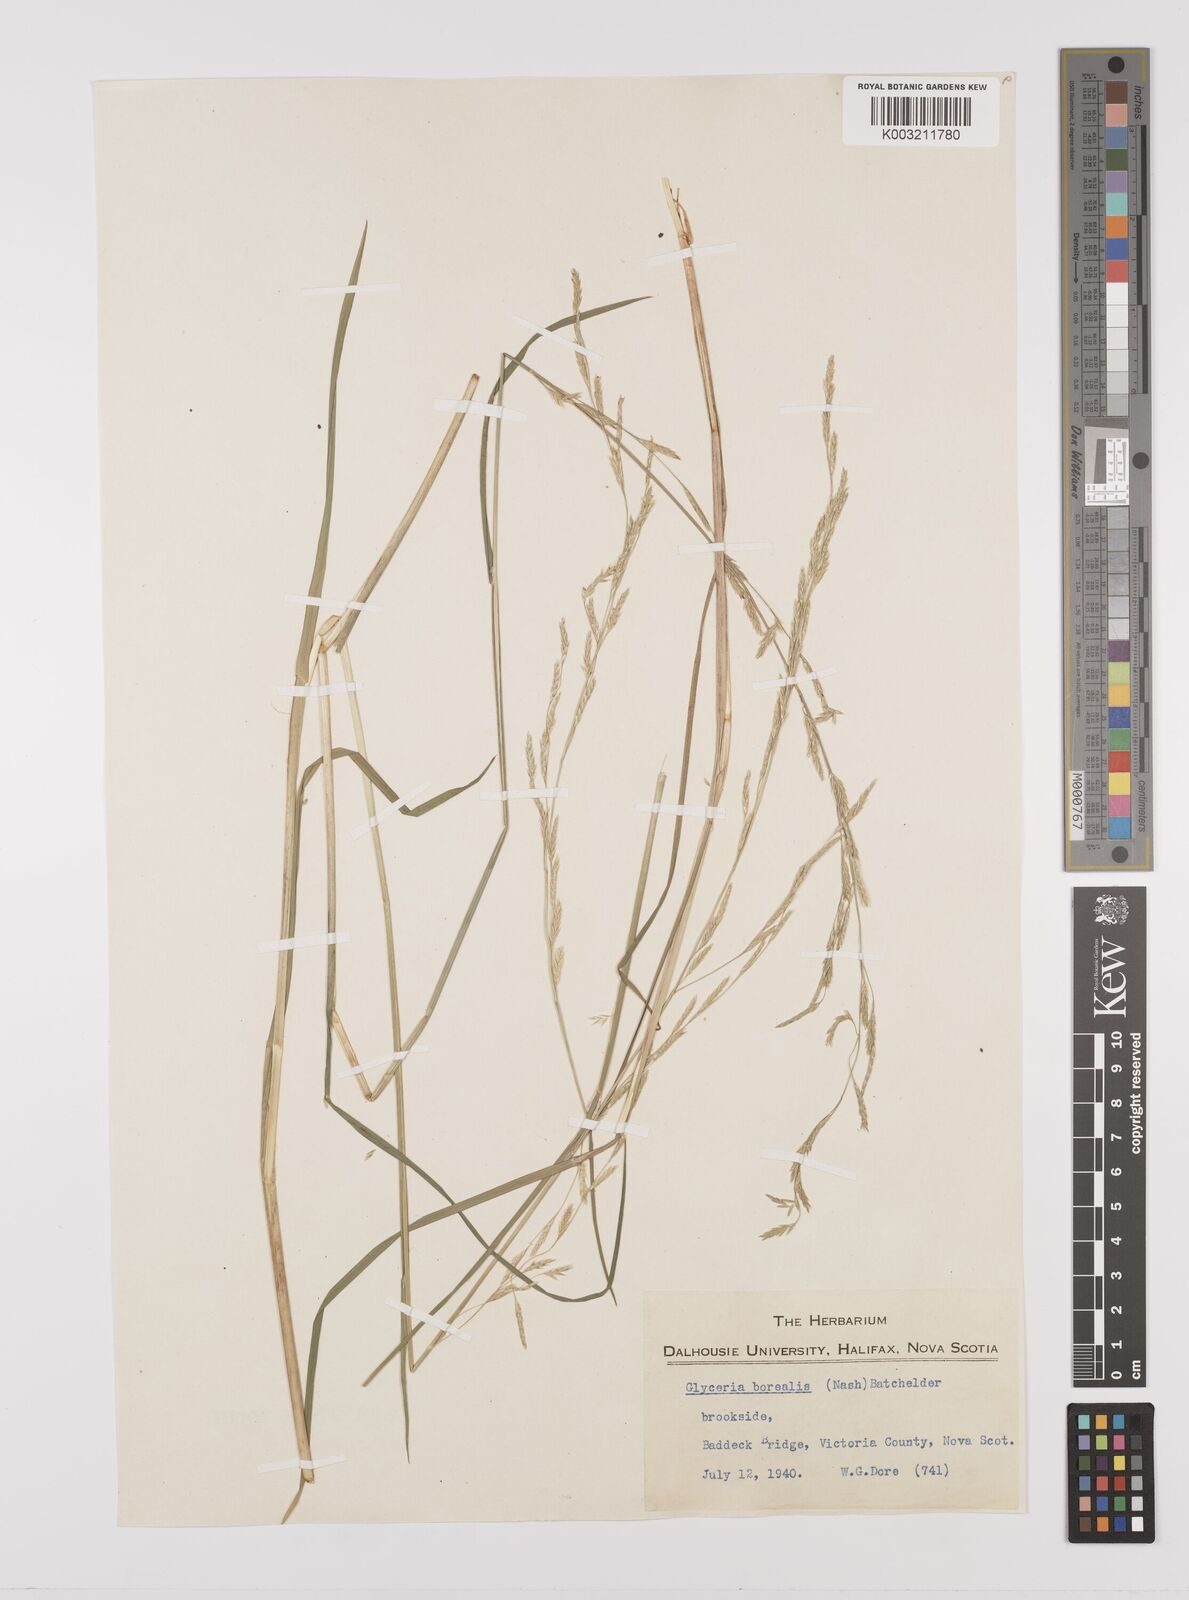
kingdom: Plantae
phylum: Tracheophyta
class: Liliopsida
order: Poales
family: Poaceae
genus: Glyceria
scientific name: Glyceria borealis
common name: Boreal glyceria
